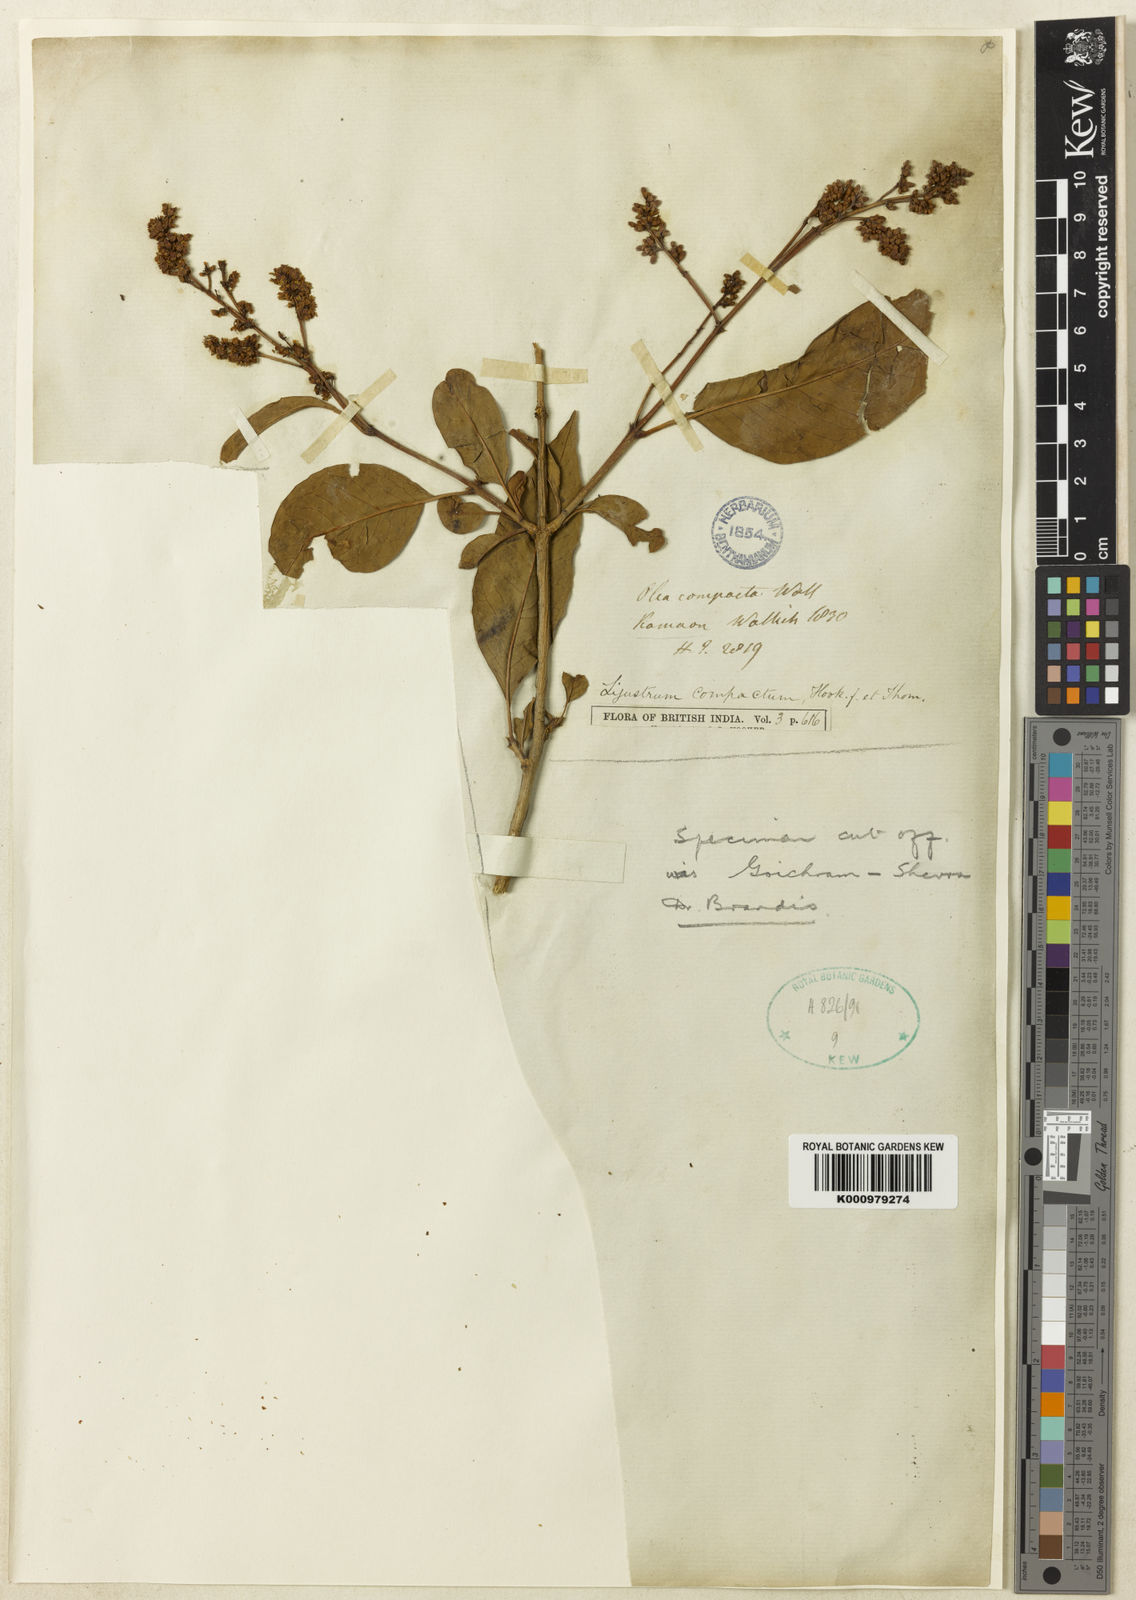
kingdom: Plantae
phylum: Tracheophyta
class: Magnoliopsida
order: Lamiales
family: Oleaceae
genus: Ligustrum
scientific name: Ligustrum compactum
